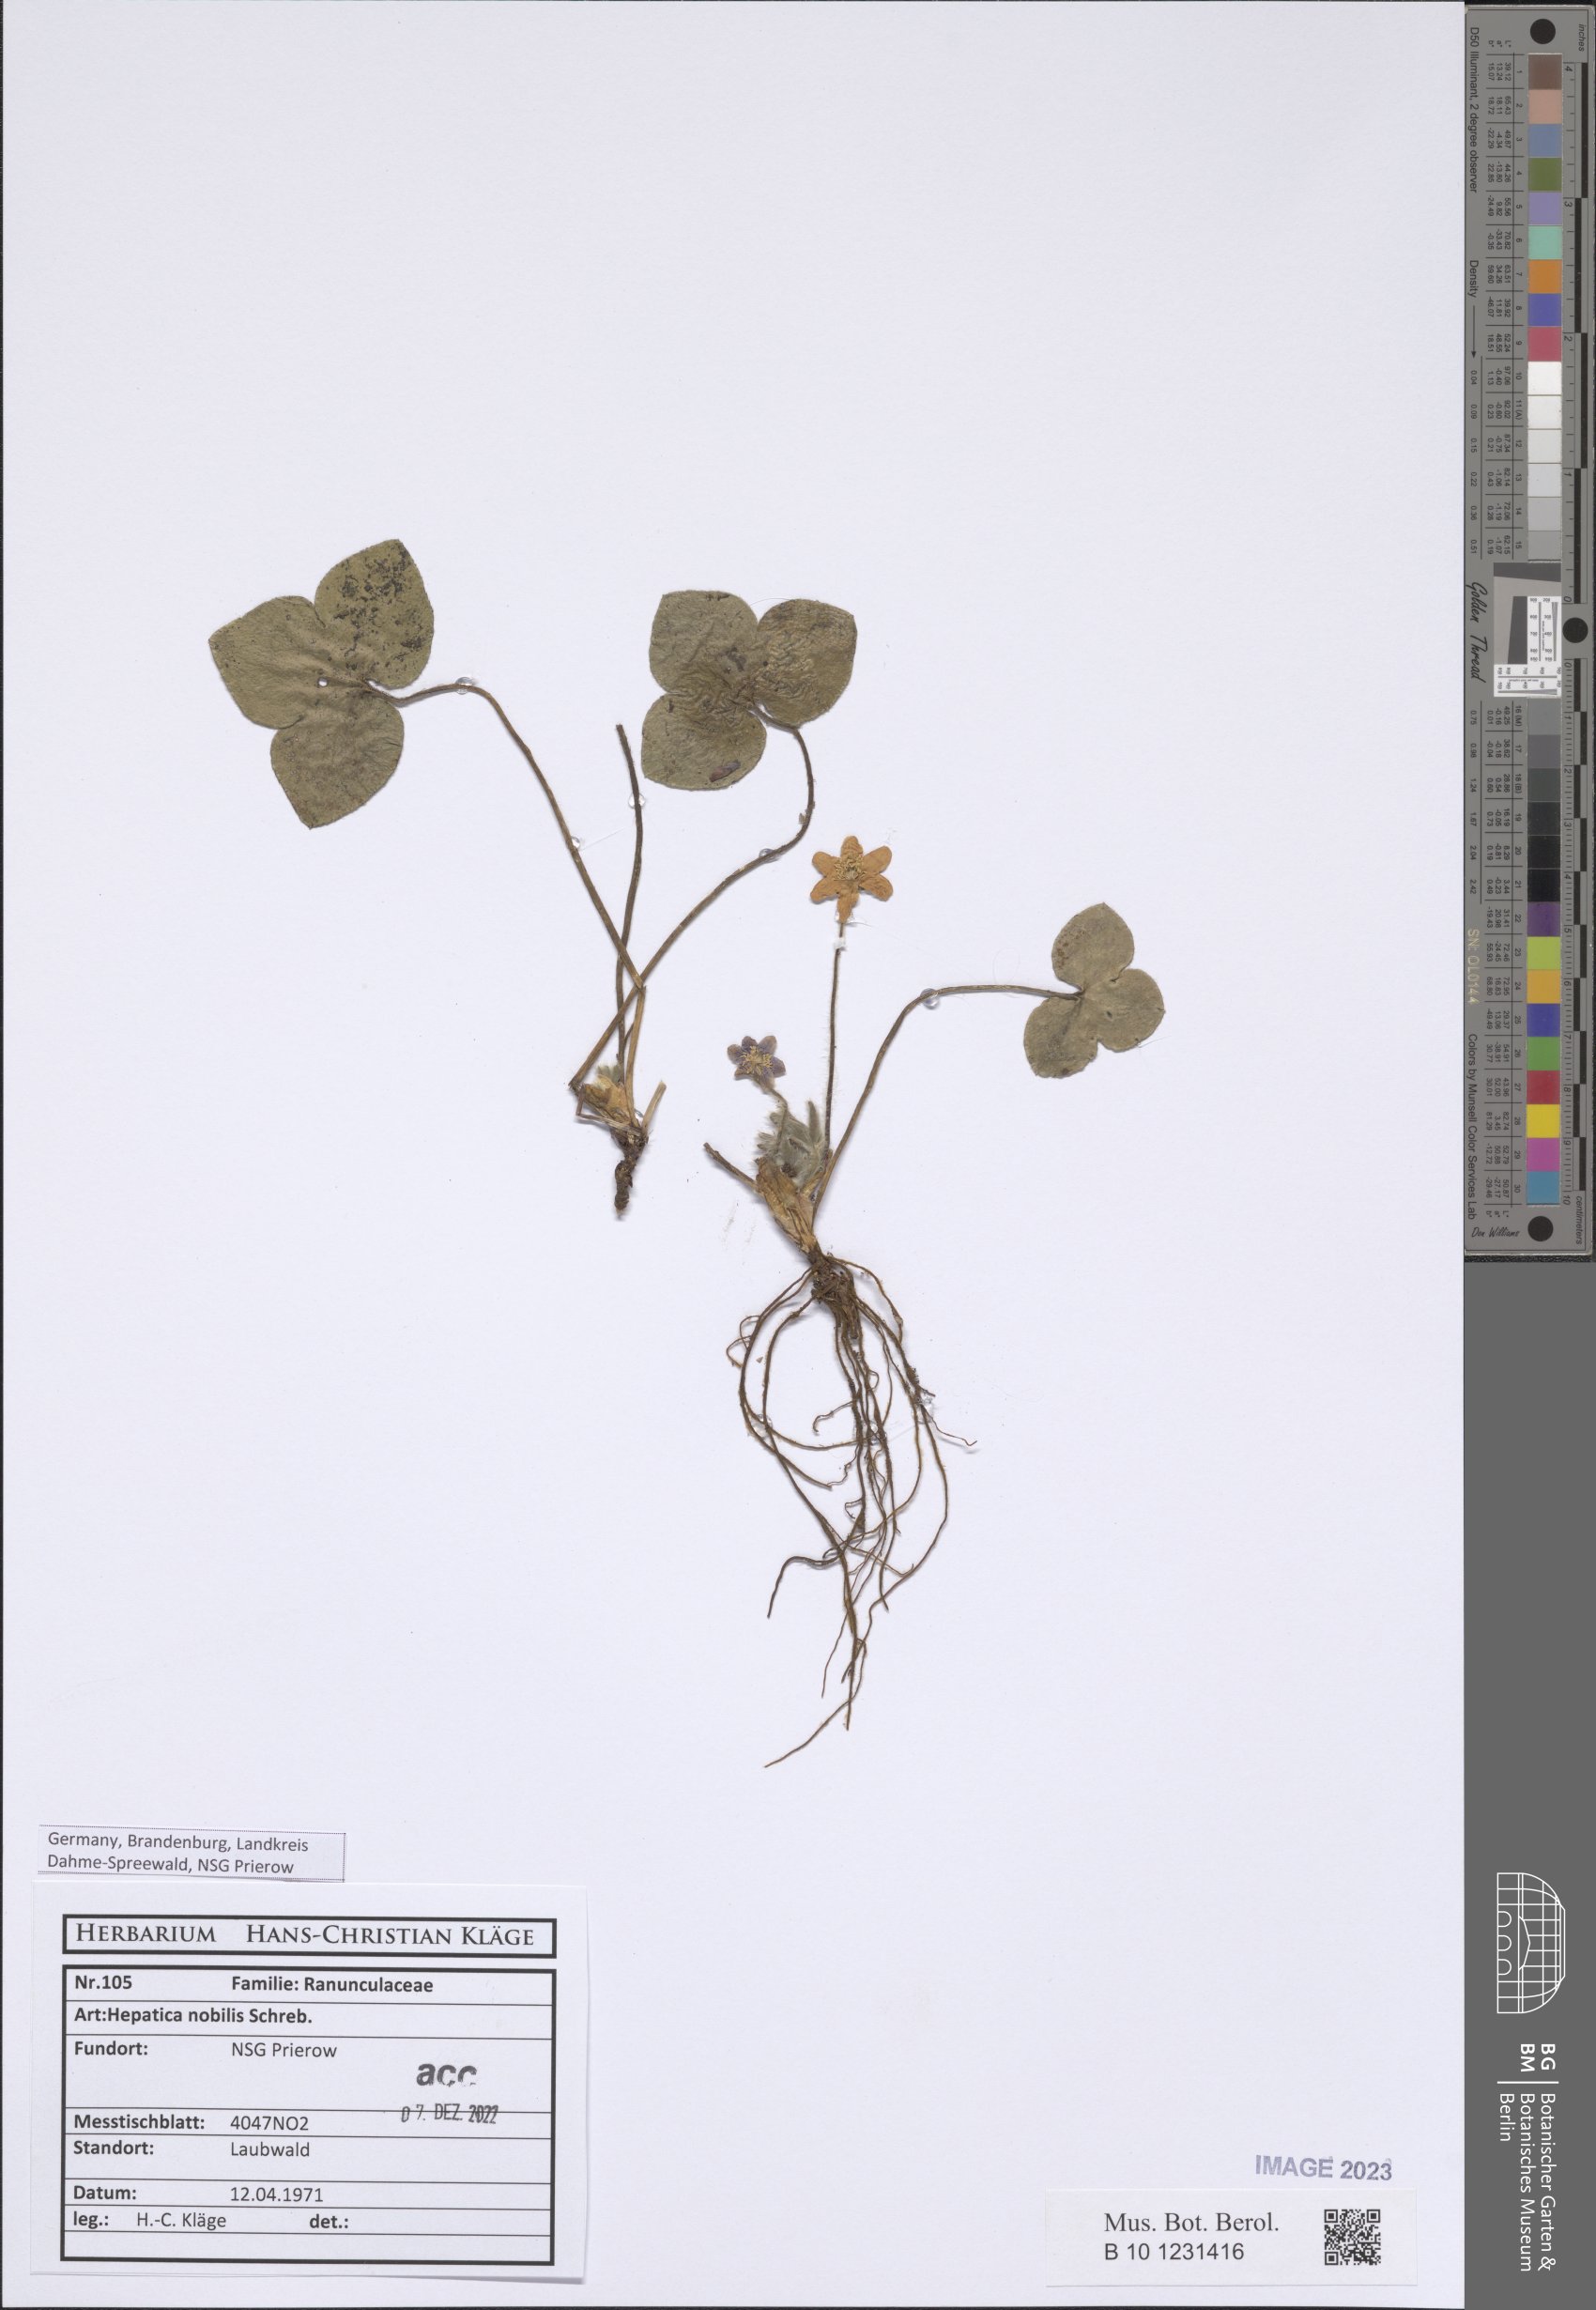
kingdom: Plantae
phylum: Tracheophyta
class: Magnoliopsida
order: Ranunculales
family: Ranunculaceae
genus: Hepatica
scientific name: Hepatica nobilis
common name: Liverleaf
